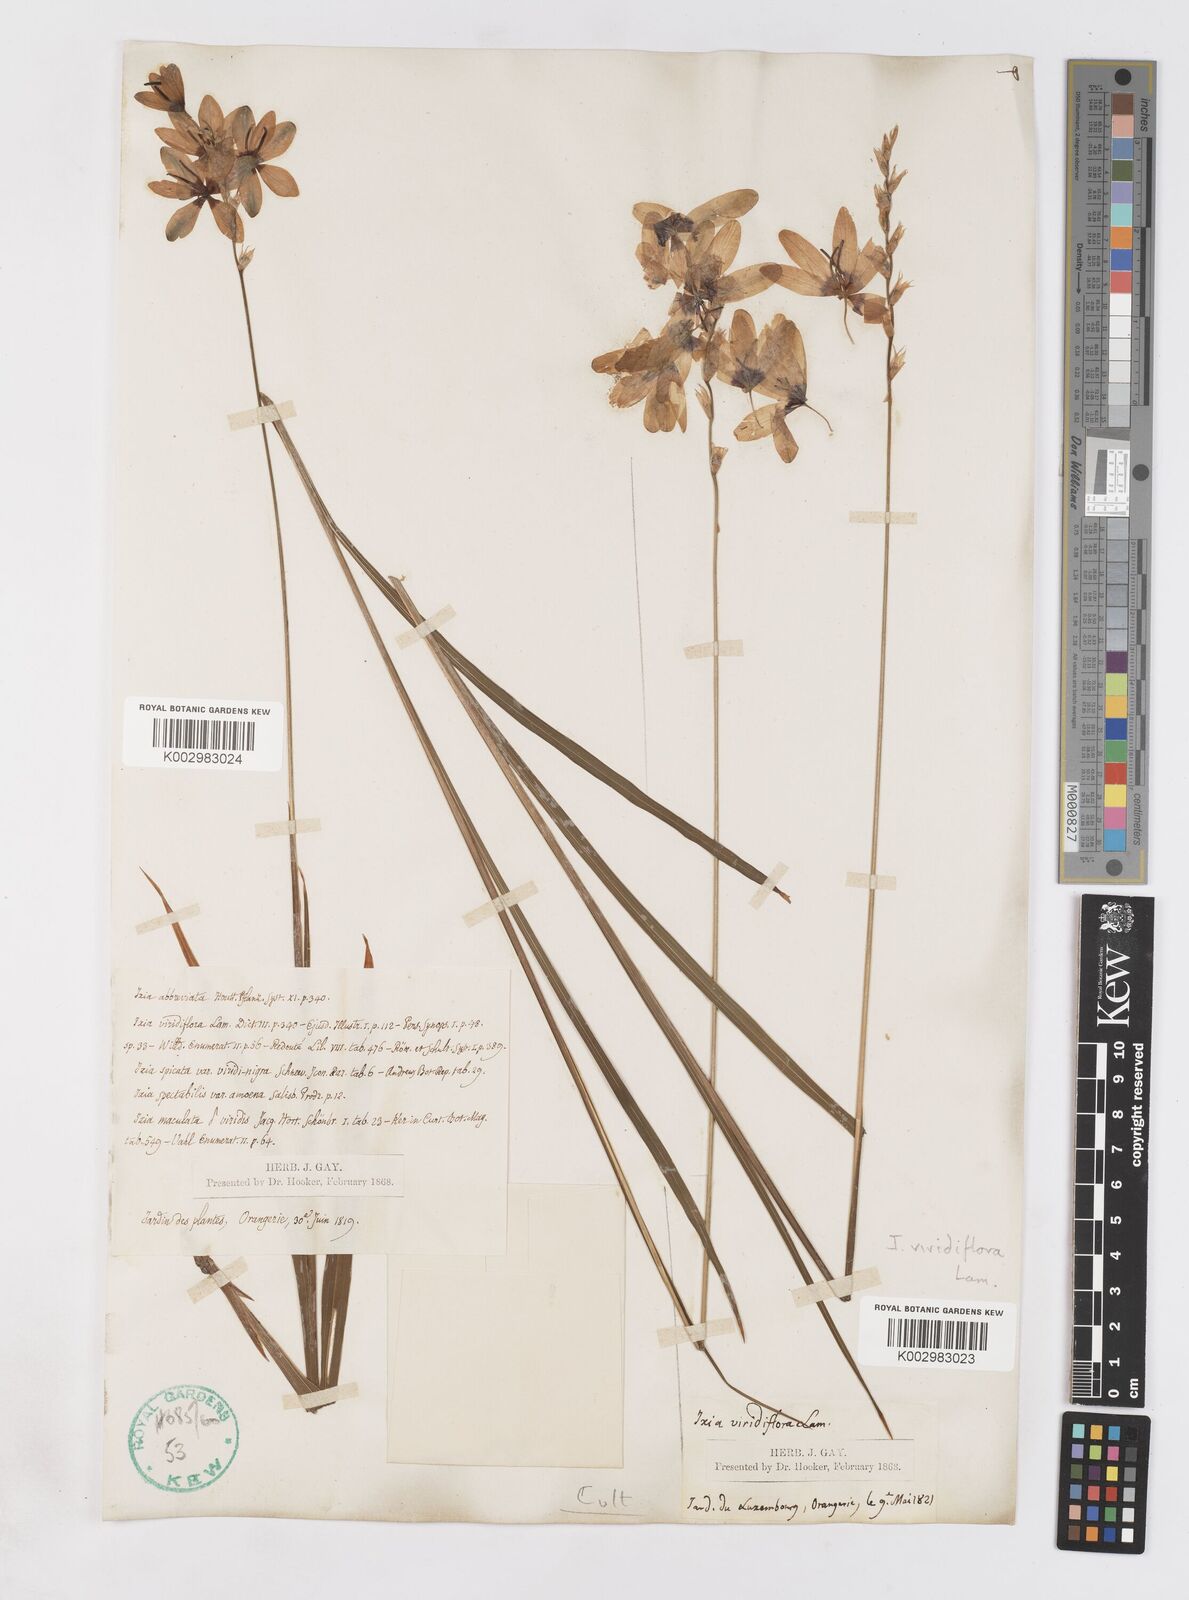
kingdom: Plantae
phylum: Tracheophyta
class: Liliopsida
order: Asparagales
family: Iridaceae
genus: Ixia
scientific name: Ixia viridiflora
